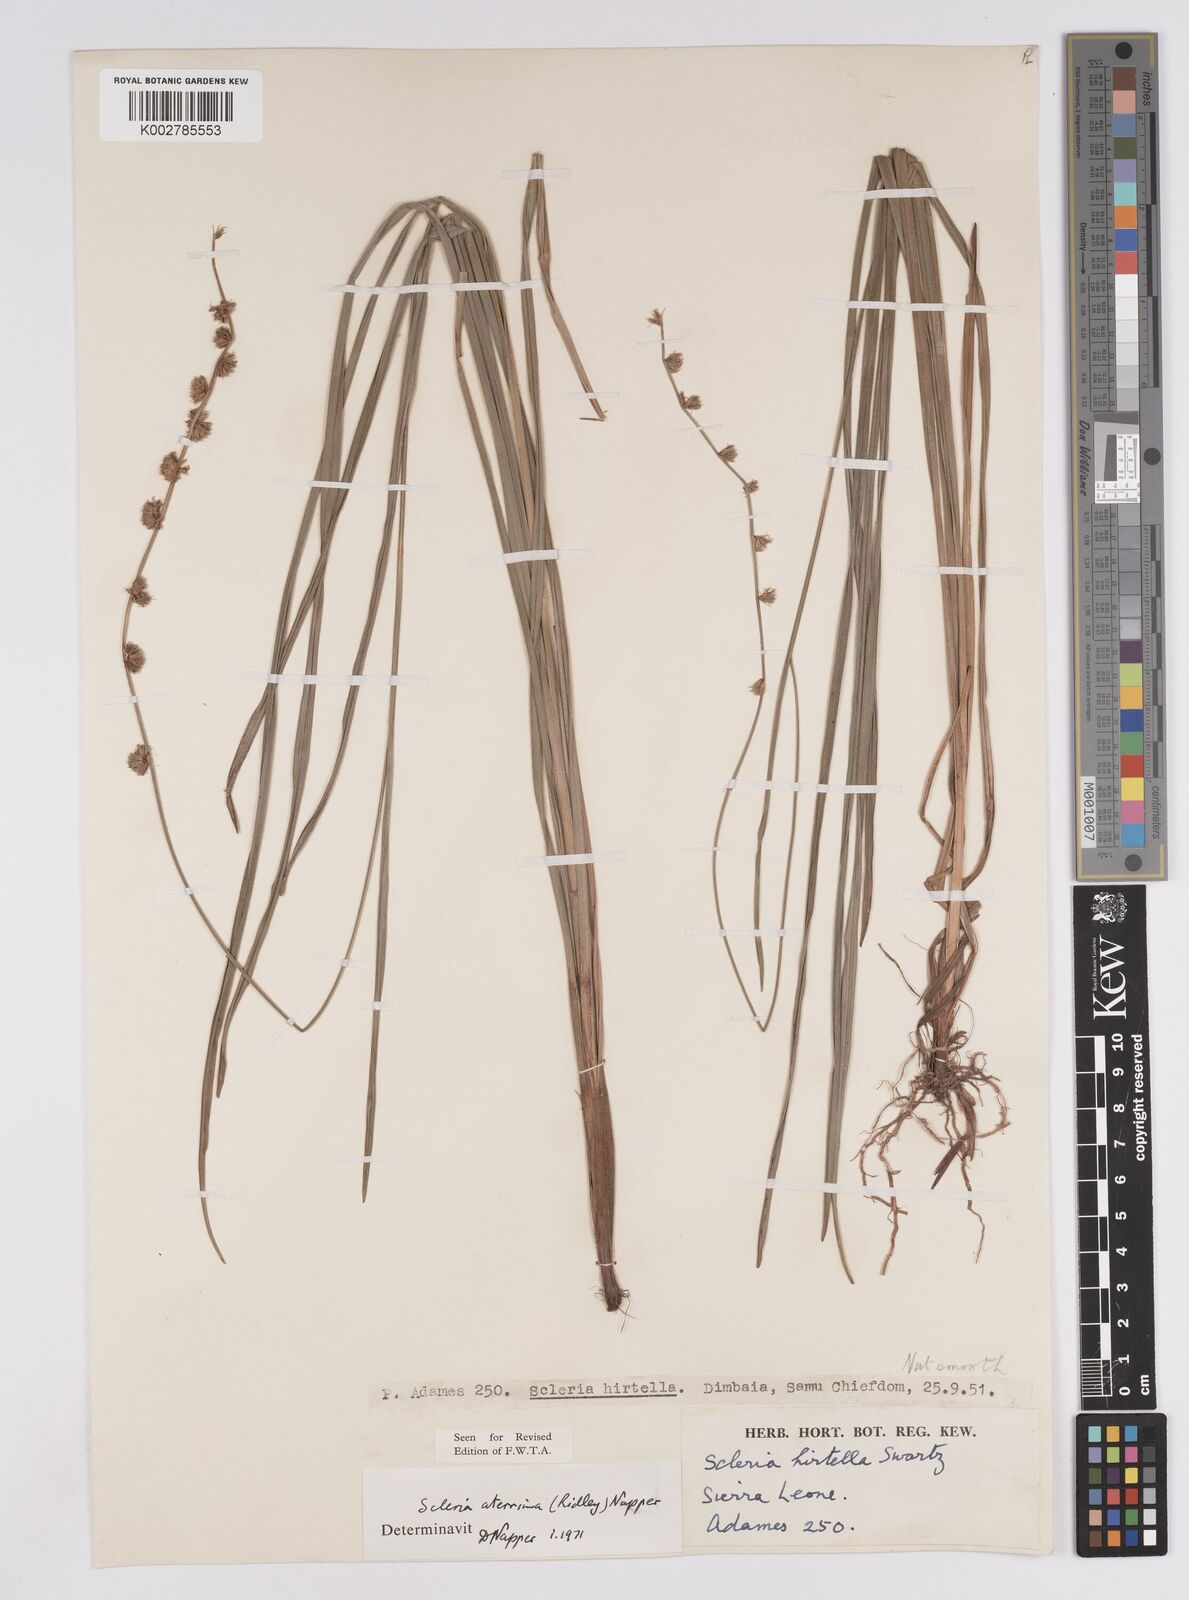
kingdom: Plantae
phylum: Tracheophyta
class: Liliopsida
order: Poales
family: Cyperaceae
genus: Scleria
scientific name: Scleria catophylla
